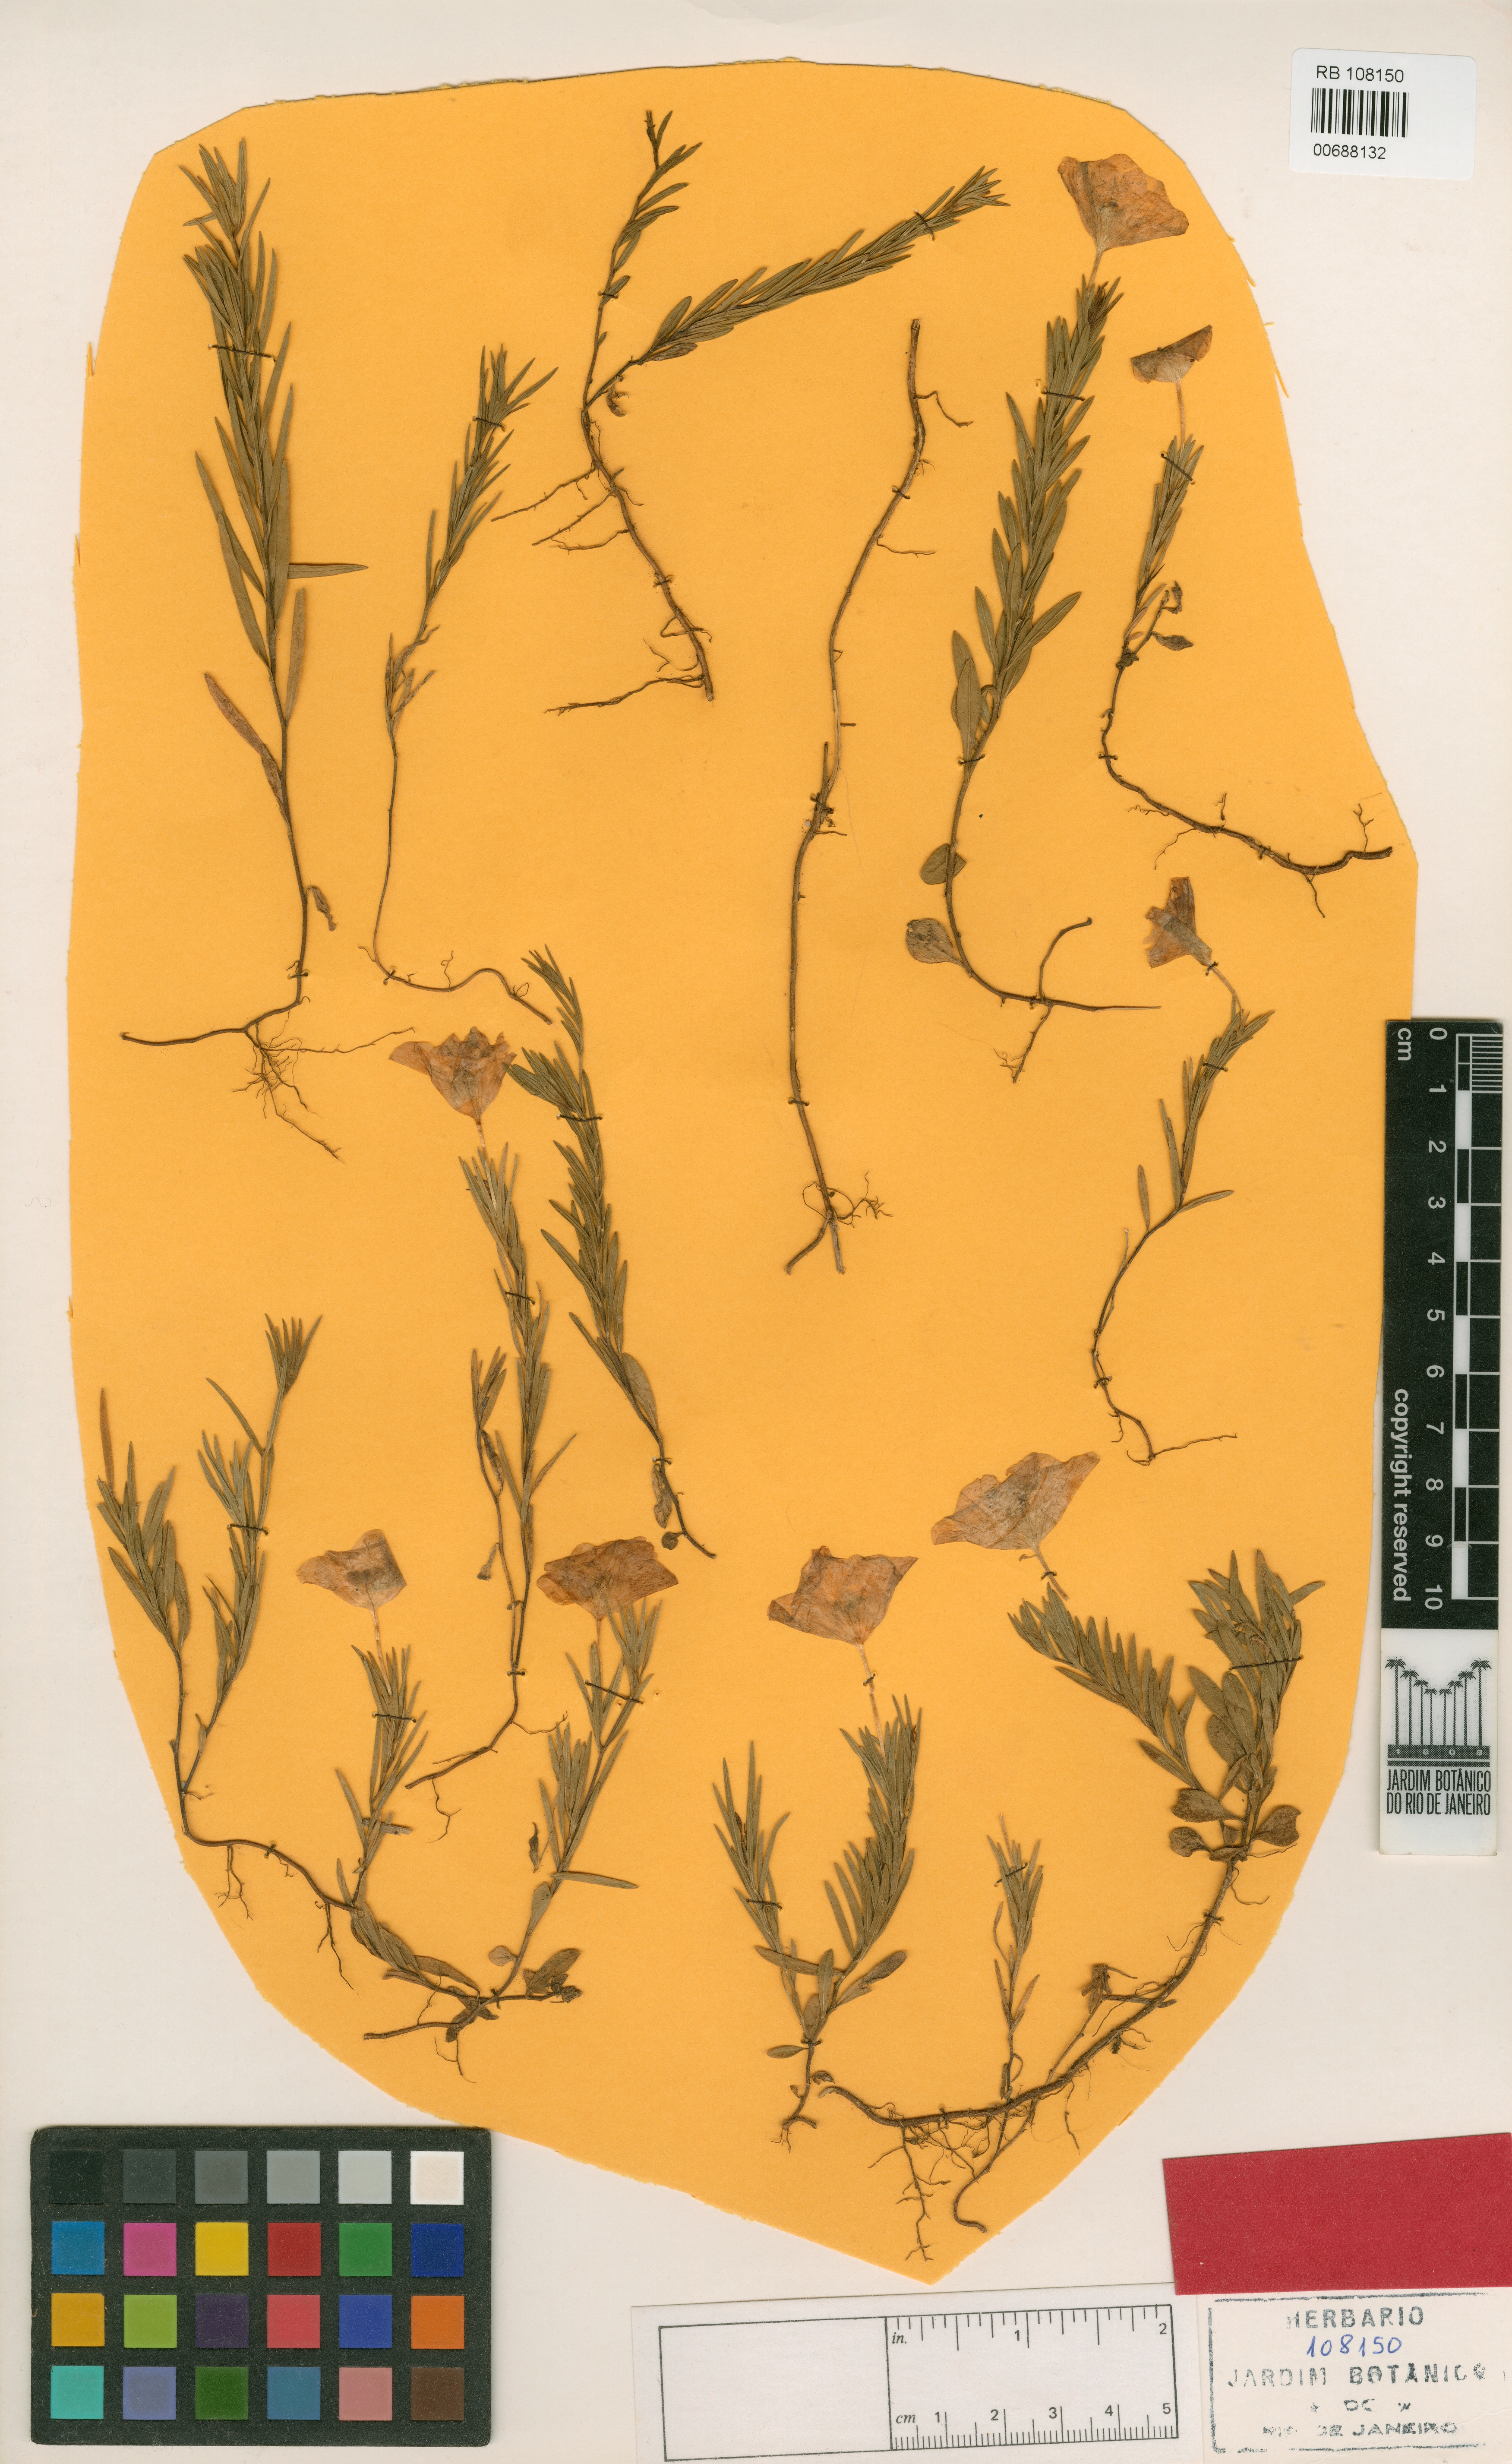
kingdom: Plantae
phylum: Tracheophyta
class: Magnoliopsida
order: Solanales
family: Solanaceae
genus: Nierembergia
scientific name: Nierembergia hatschbachii
